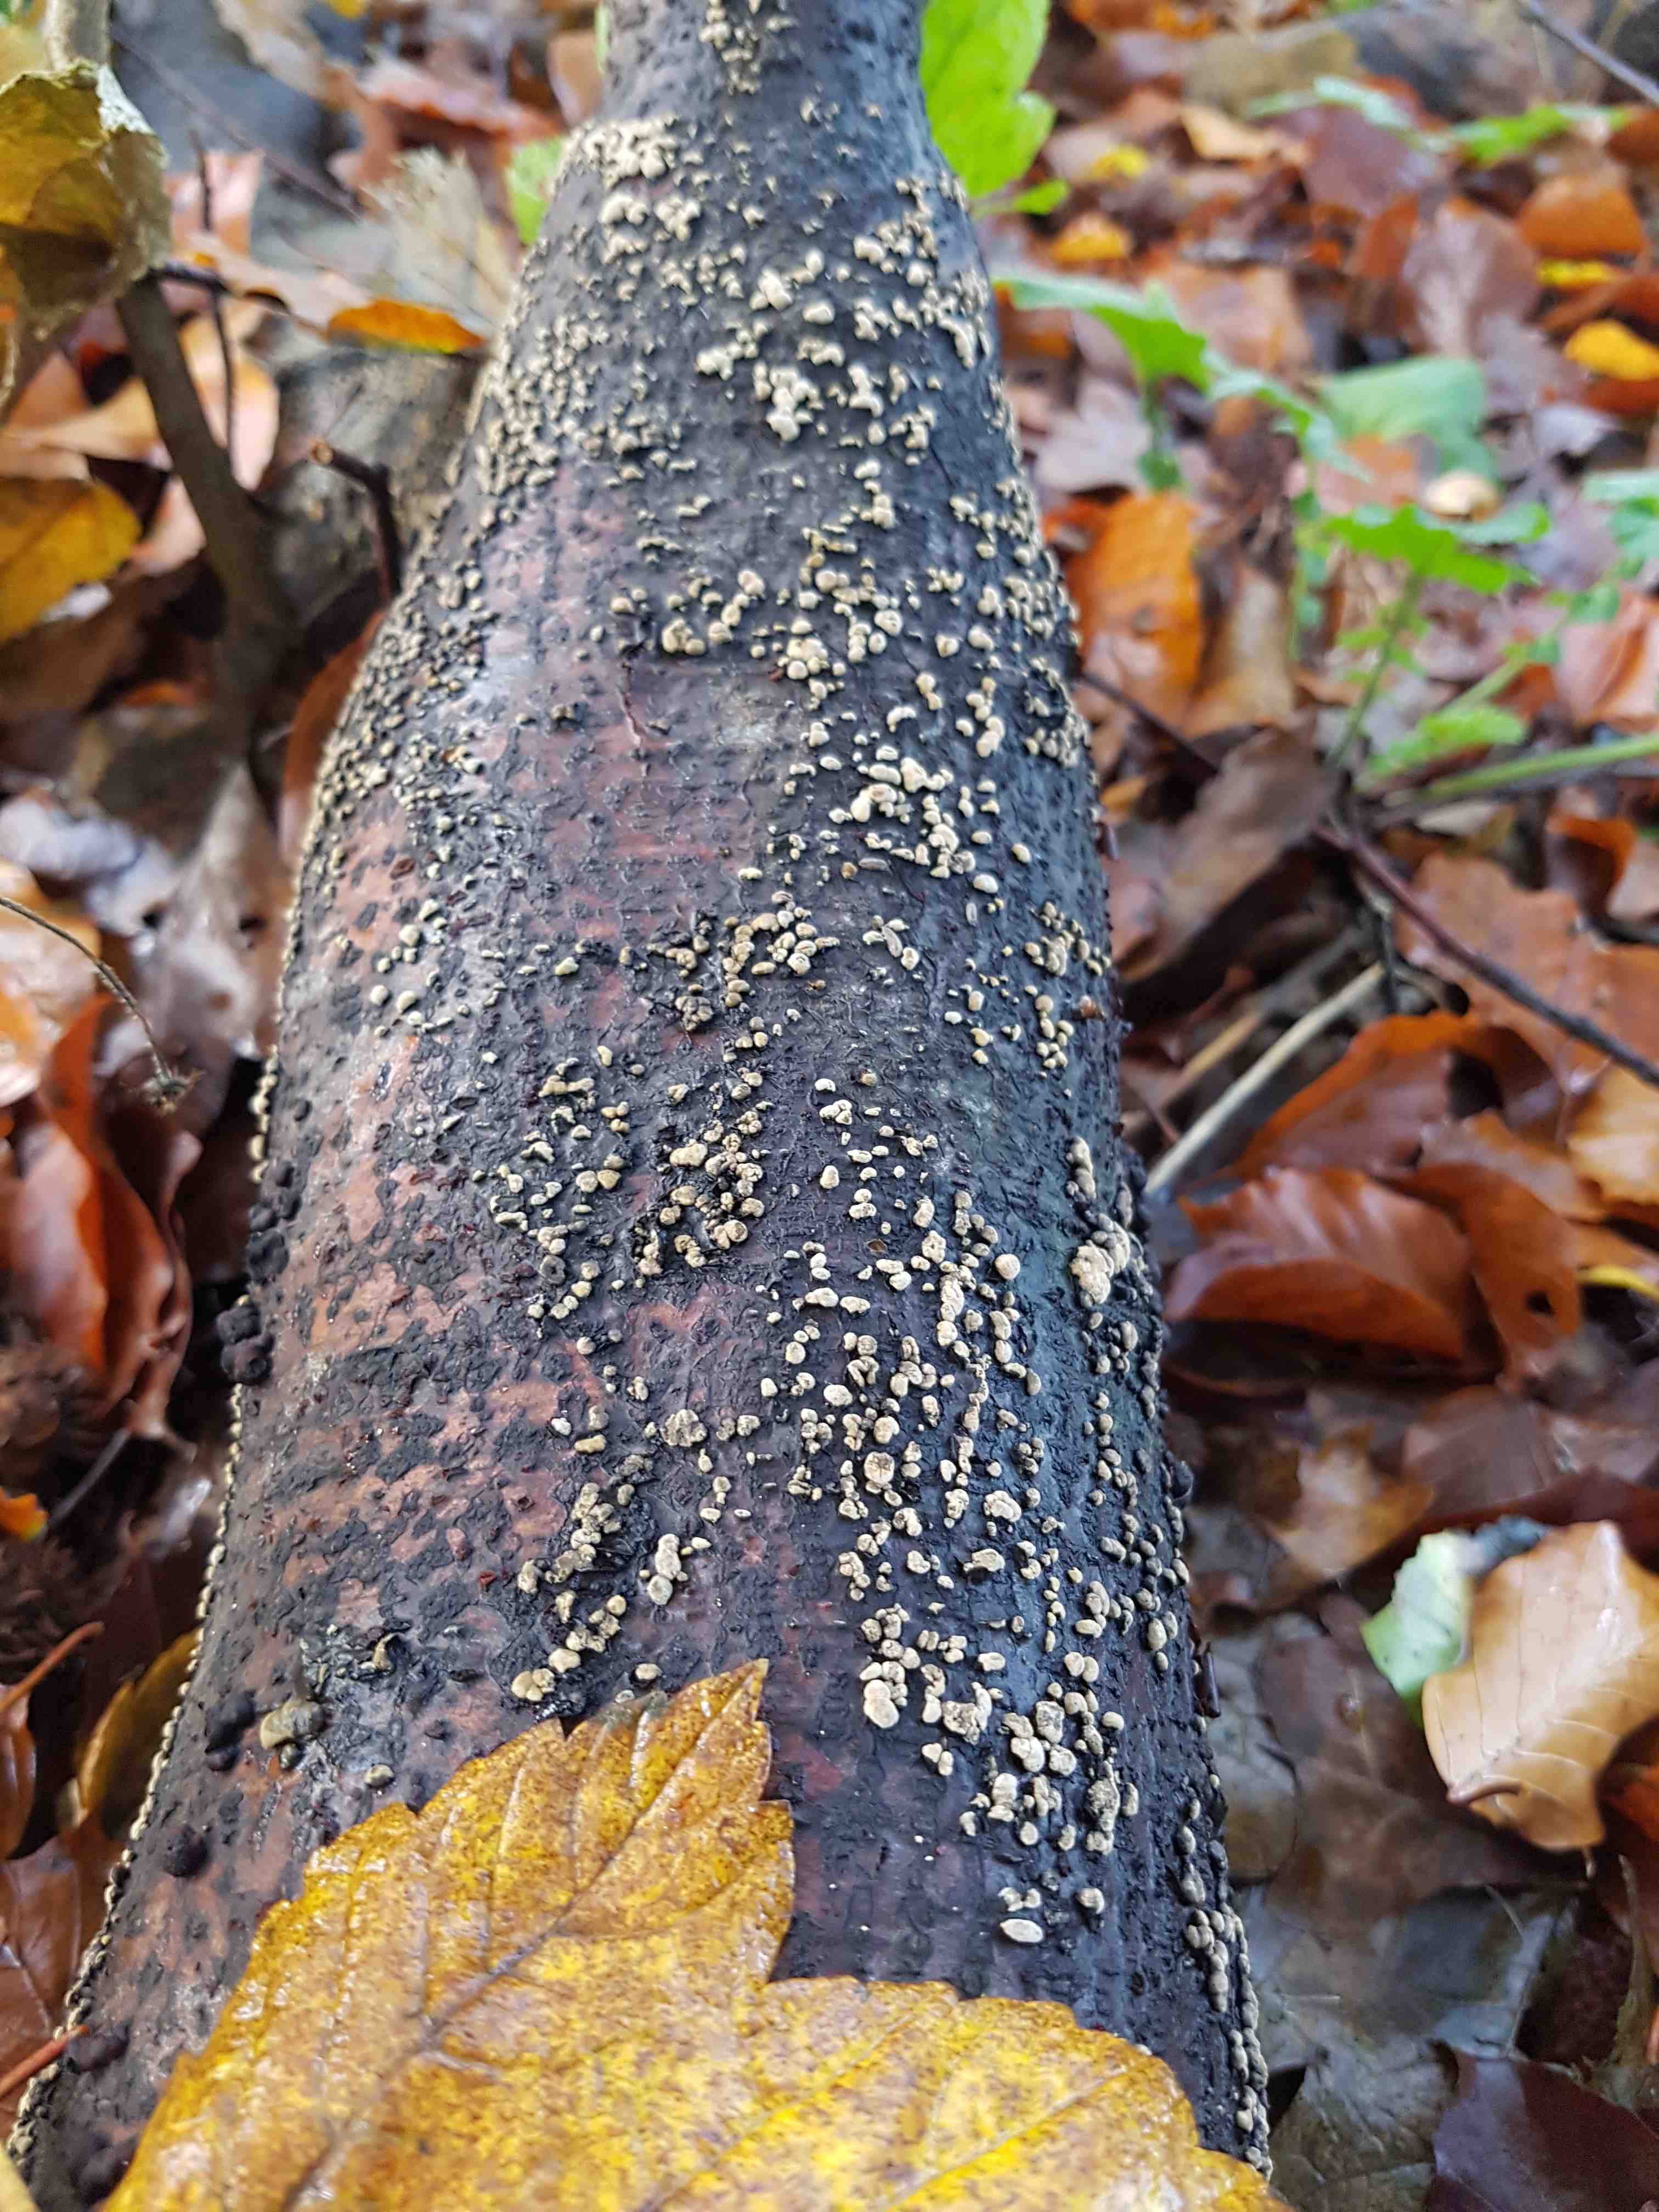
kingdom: Fungi
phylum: Ascomycota
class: Sordariomycetes
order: Xylariales
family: Xylariaceae
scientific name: Xylariaceae
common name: stødsvampfamilien
